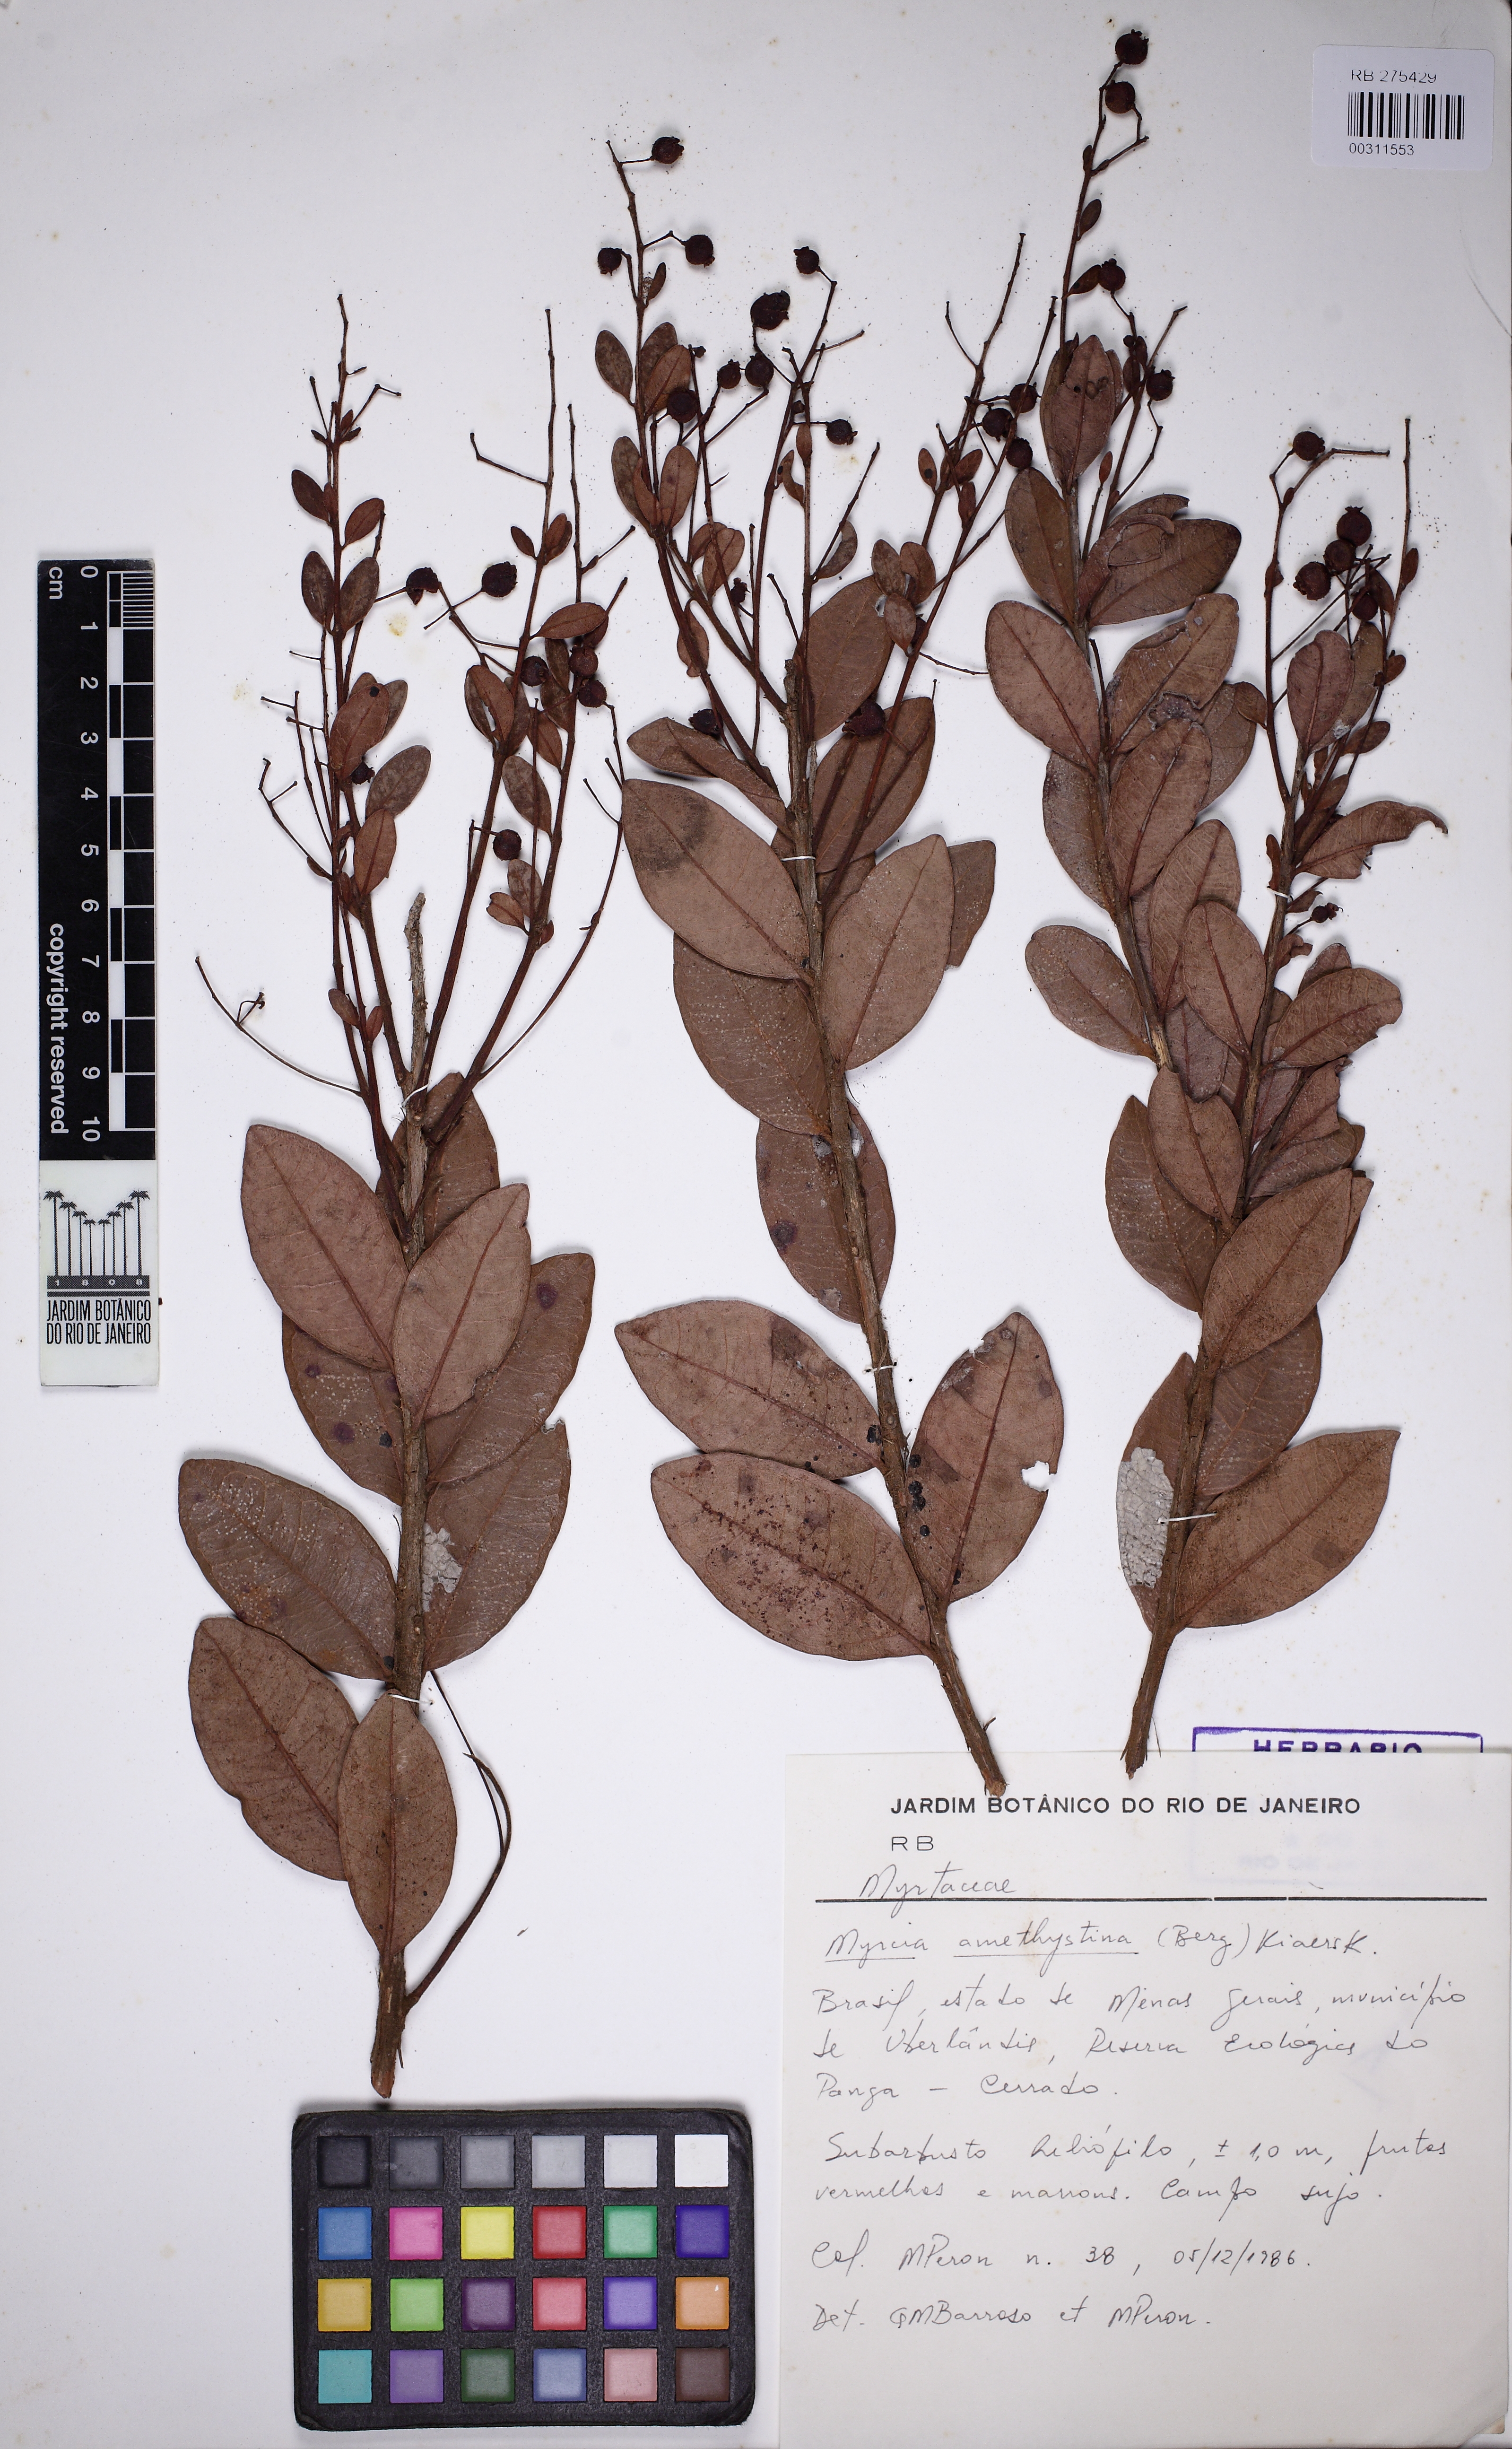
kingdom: Plantae
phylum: Tracheophyta
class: Magnoliopsida
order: Myrtales
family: Myrtaceae
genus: Myrcia
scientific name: Myrcia guianensis
